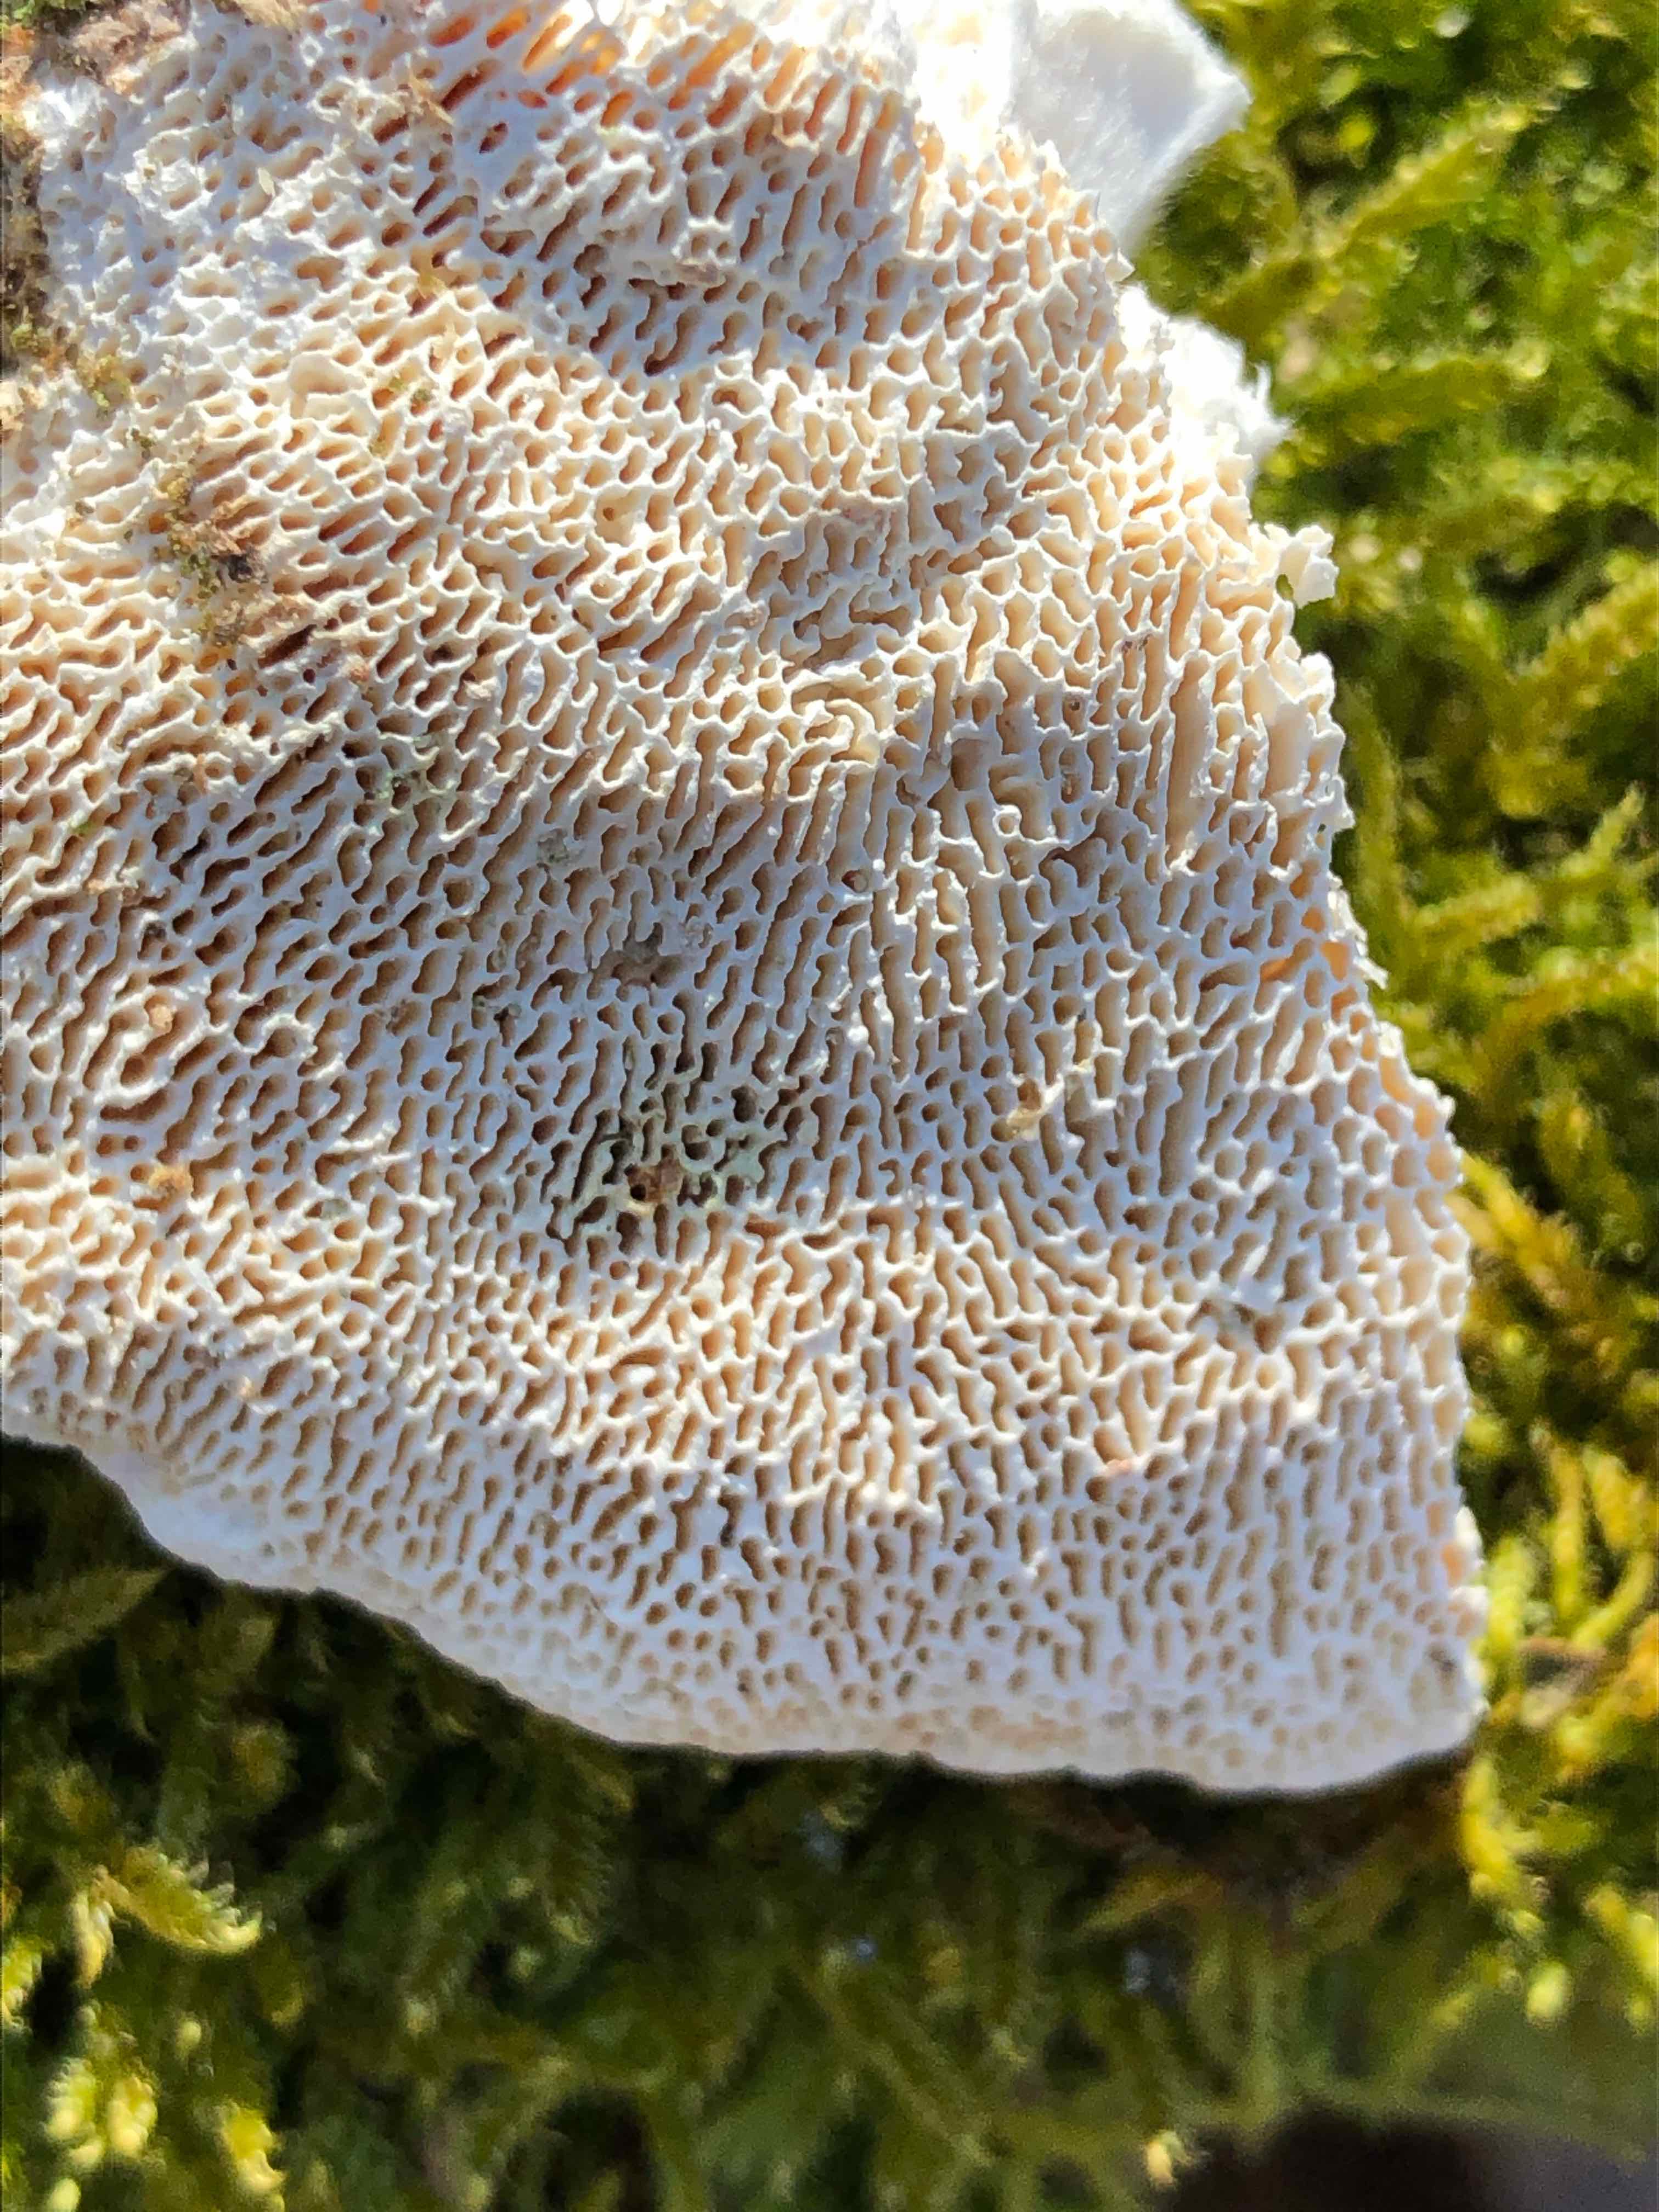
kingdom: Fungi
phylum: Basidiomycota
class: Agaricomycetes
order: Polyporales
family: Polyporaceae
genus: Trametes
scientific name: Trametes gibbosa
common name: puklet læderporesvamp
